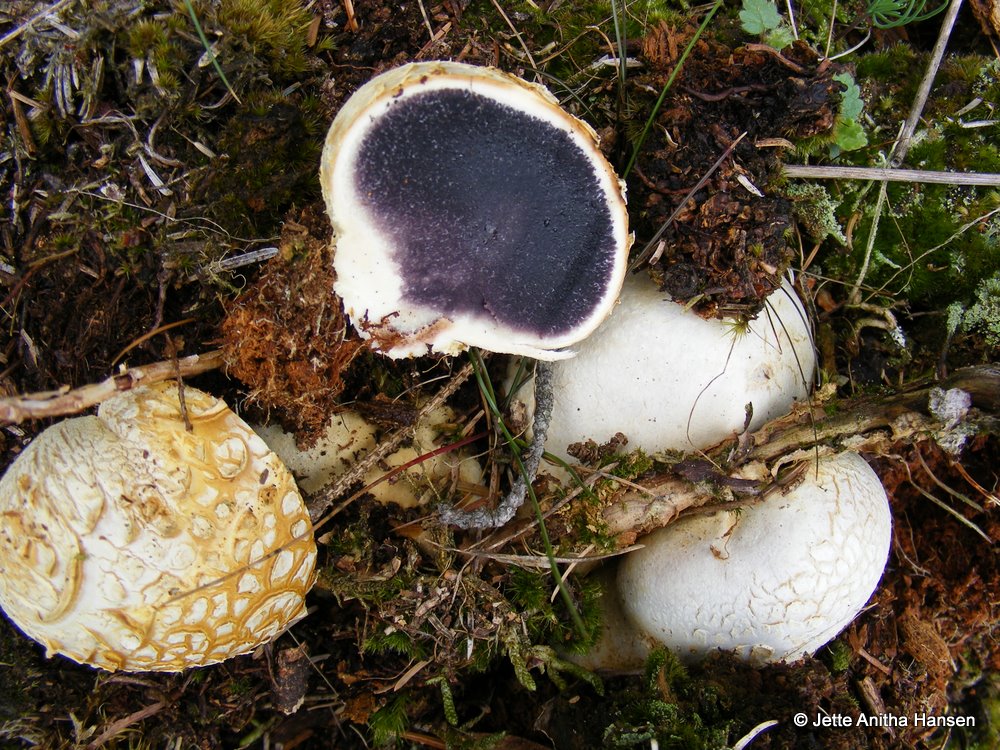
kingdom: Fungi
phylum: Basidiomycota
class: Agaricomycetes
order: Boletales
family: Sclerodermataceae
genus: Scleroderma
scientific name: Scleroderma citrinum
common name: almindelig bruskbold
